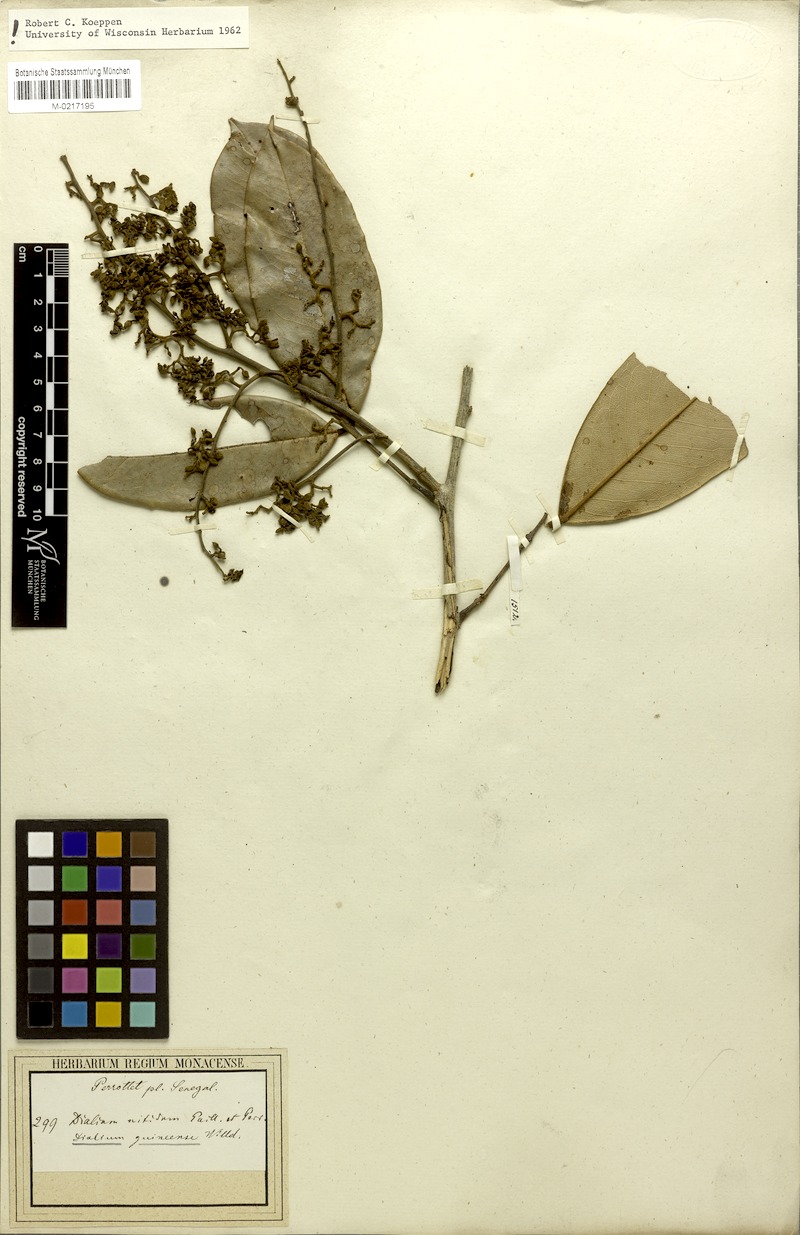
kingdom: Plantae
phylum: Tracheophyta
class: Magnoliopsida
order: Fabales
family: Fabaceae
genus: Dialium
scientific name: Dialium guineense
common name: Sierra leone-tamarind
